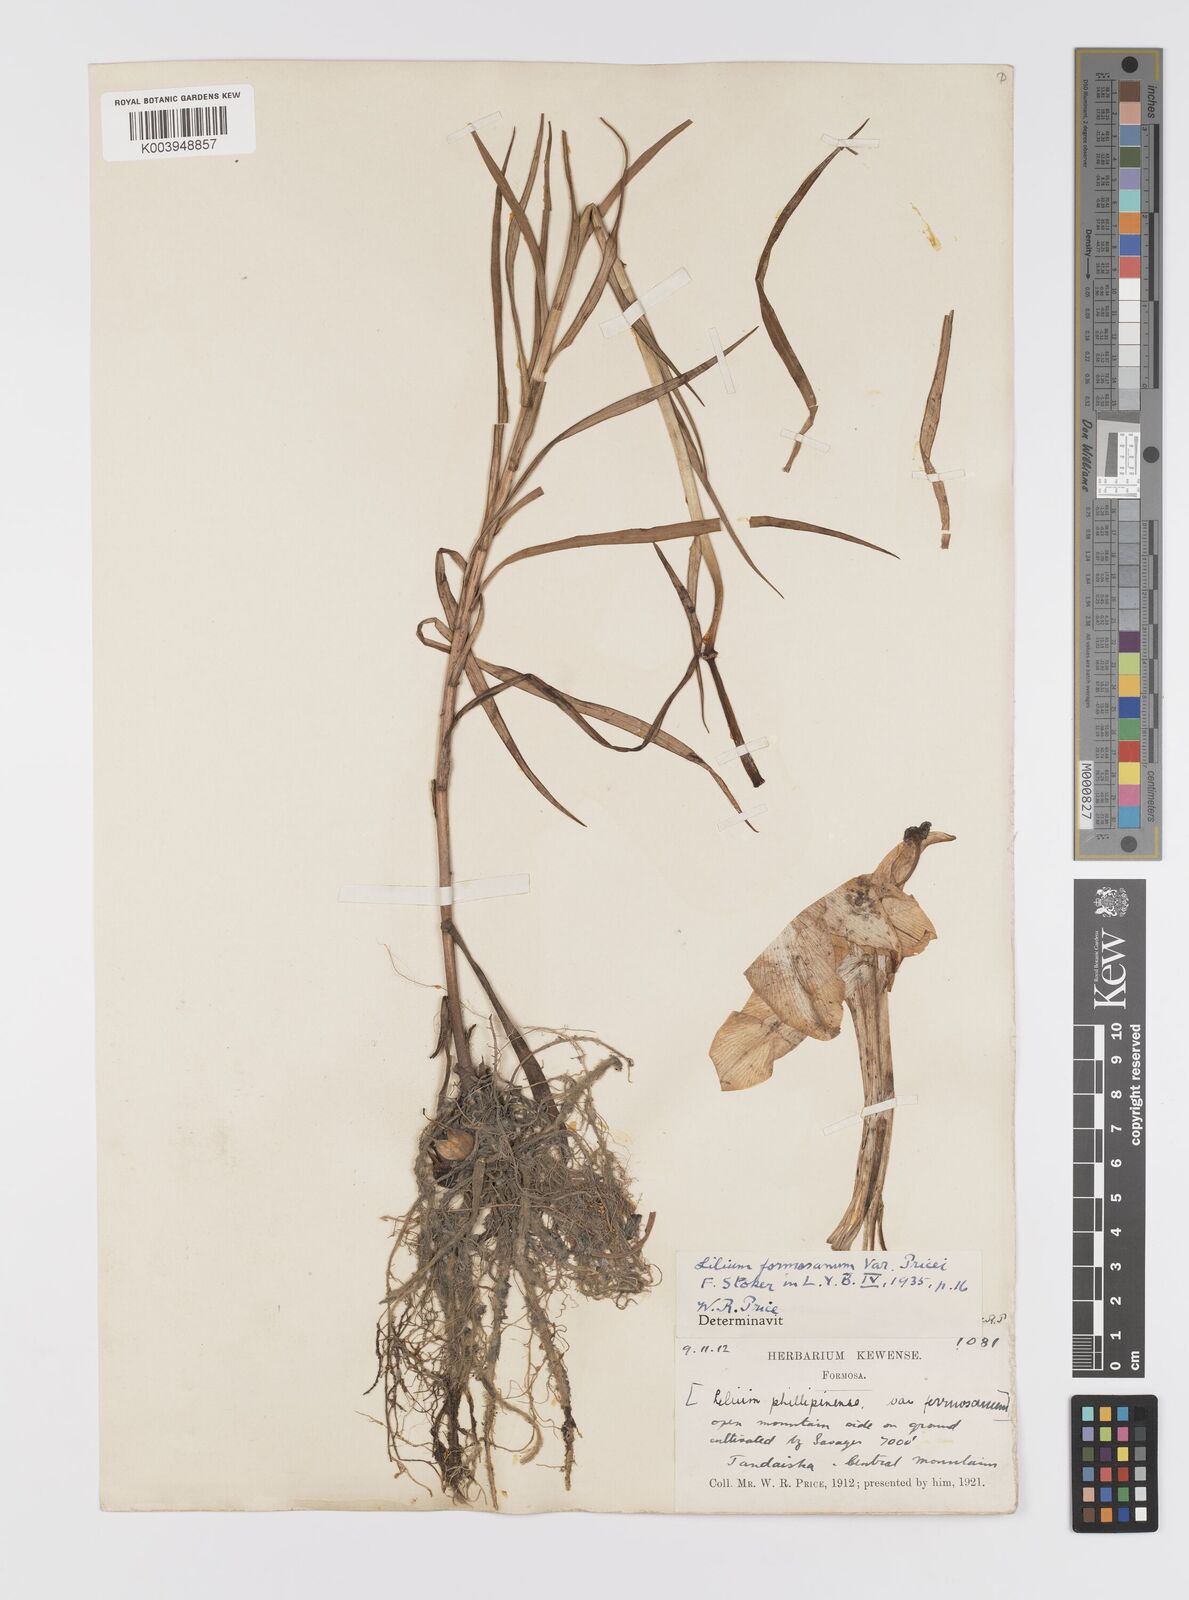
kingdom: Plantae
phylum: Tracheophyta
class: Liliopsida
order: Liliales
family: Liliaceae
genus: Lilium
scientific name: Lilium formosanum
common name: Formosa lily
